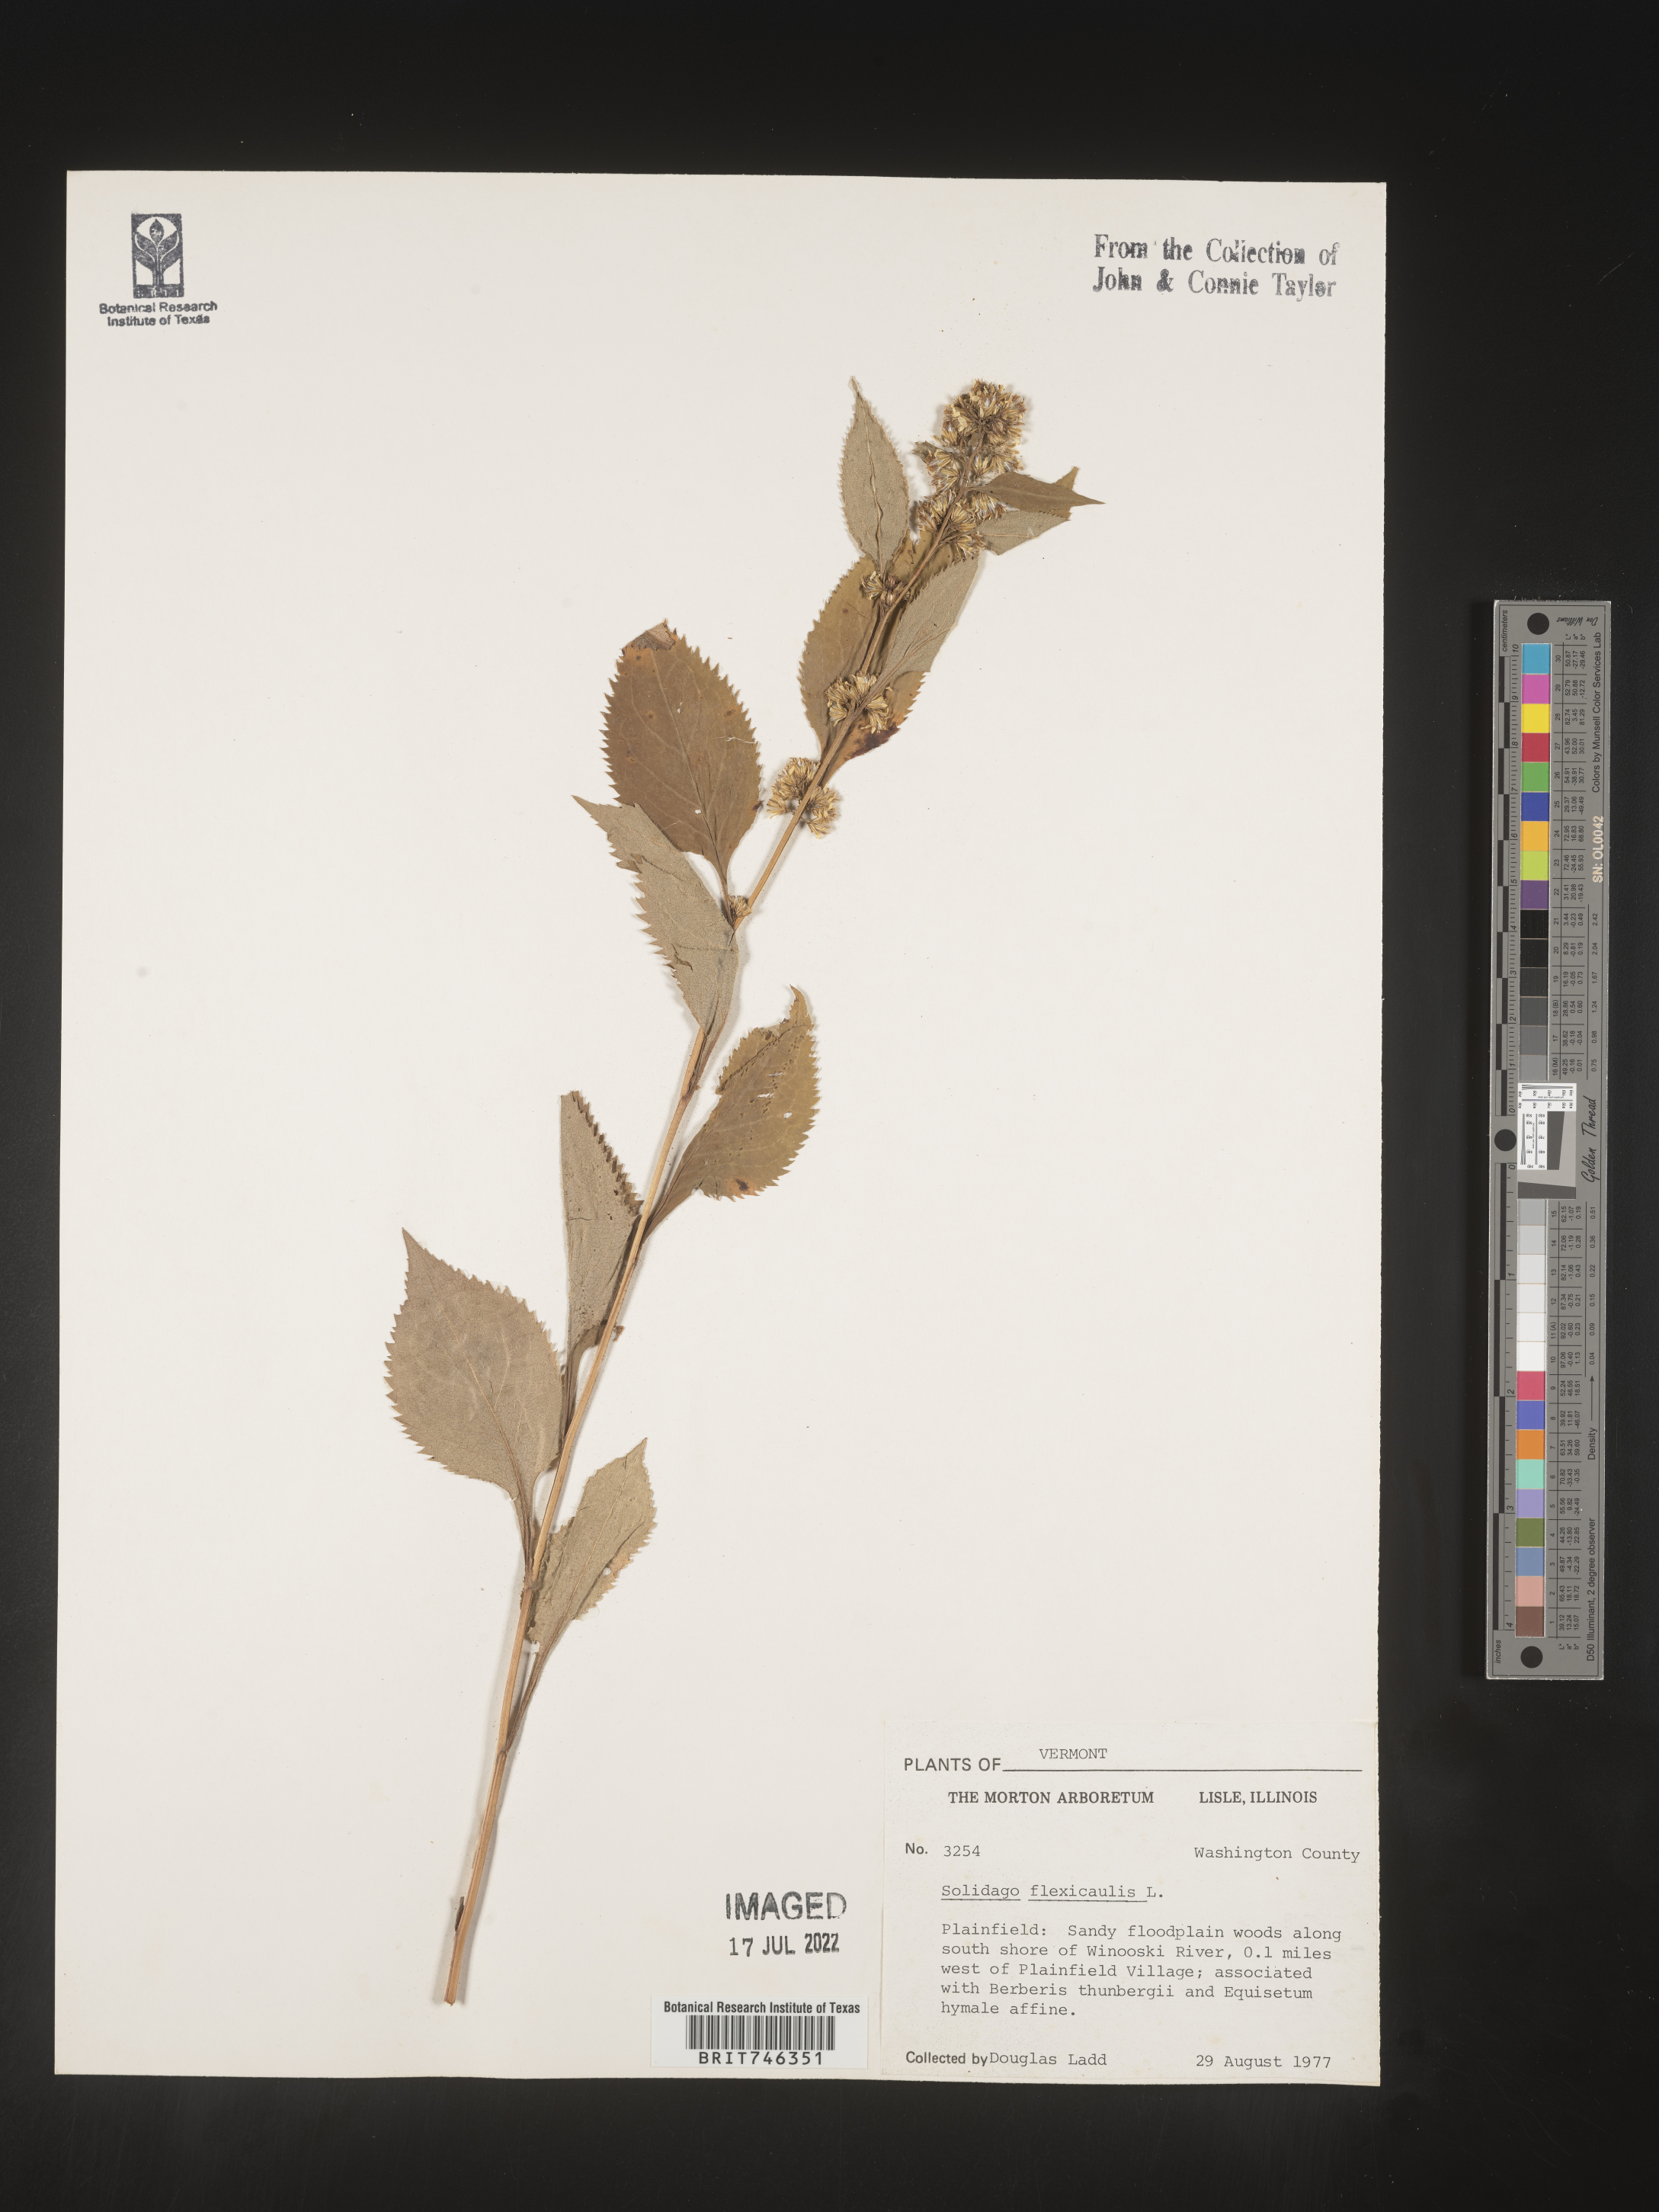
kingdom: Plantae
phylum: Tracheophyta
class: Magnoliopsida
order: Asterales
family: Asteraceae
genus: Solidago
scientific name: Solidago flexicaulis
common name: Zig-zag goldenrod
